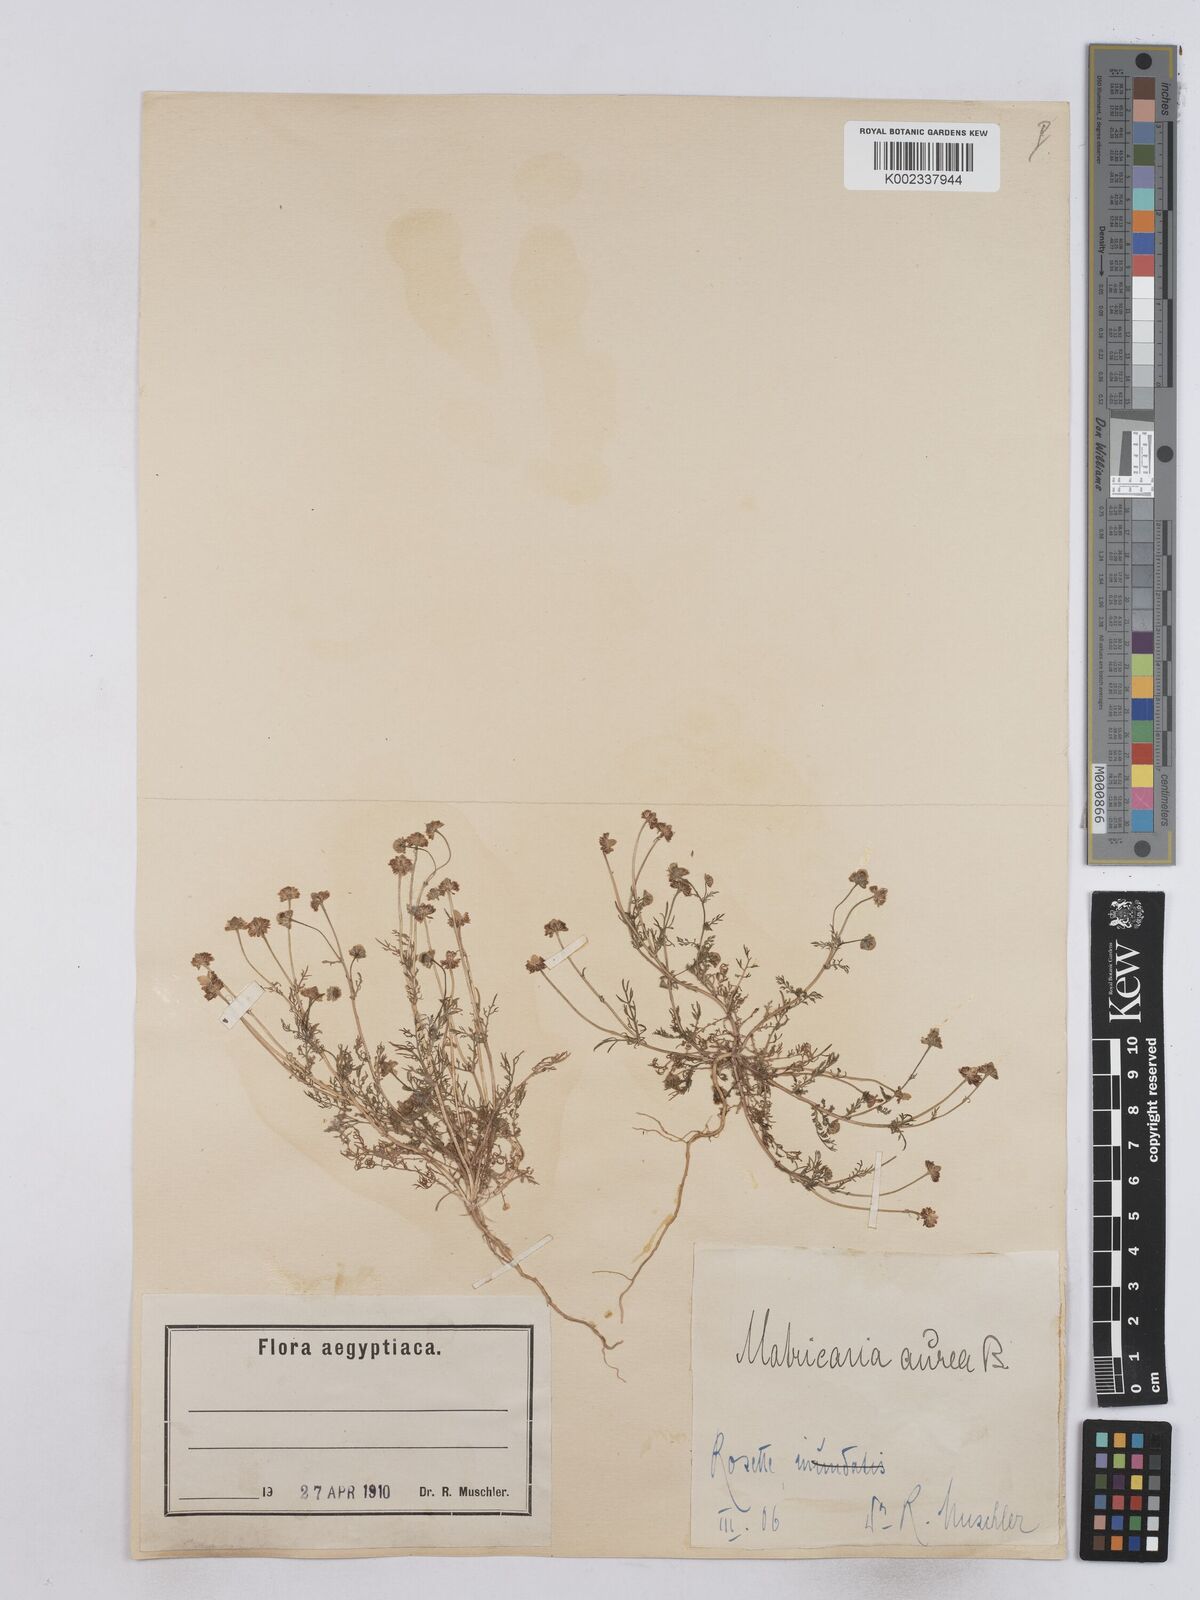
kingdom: Plantae
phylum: Tracheophyta
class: Magnoliopsida
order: Asterales
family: Asteraceae
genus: Matricaria
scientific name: Matricaria
